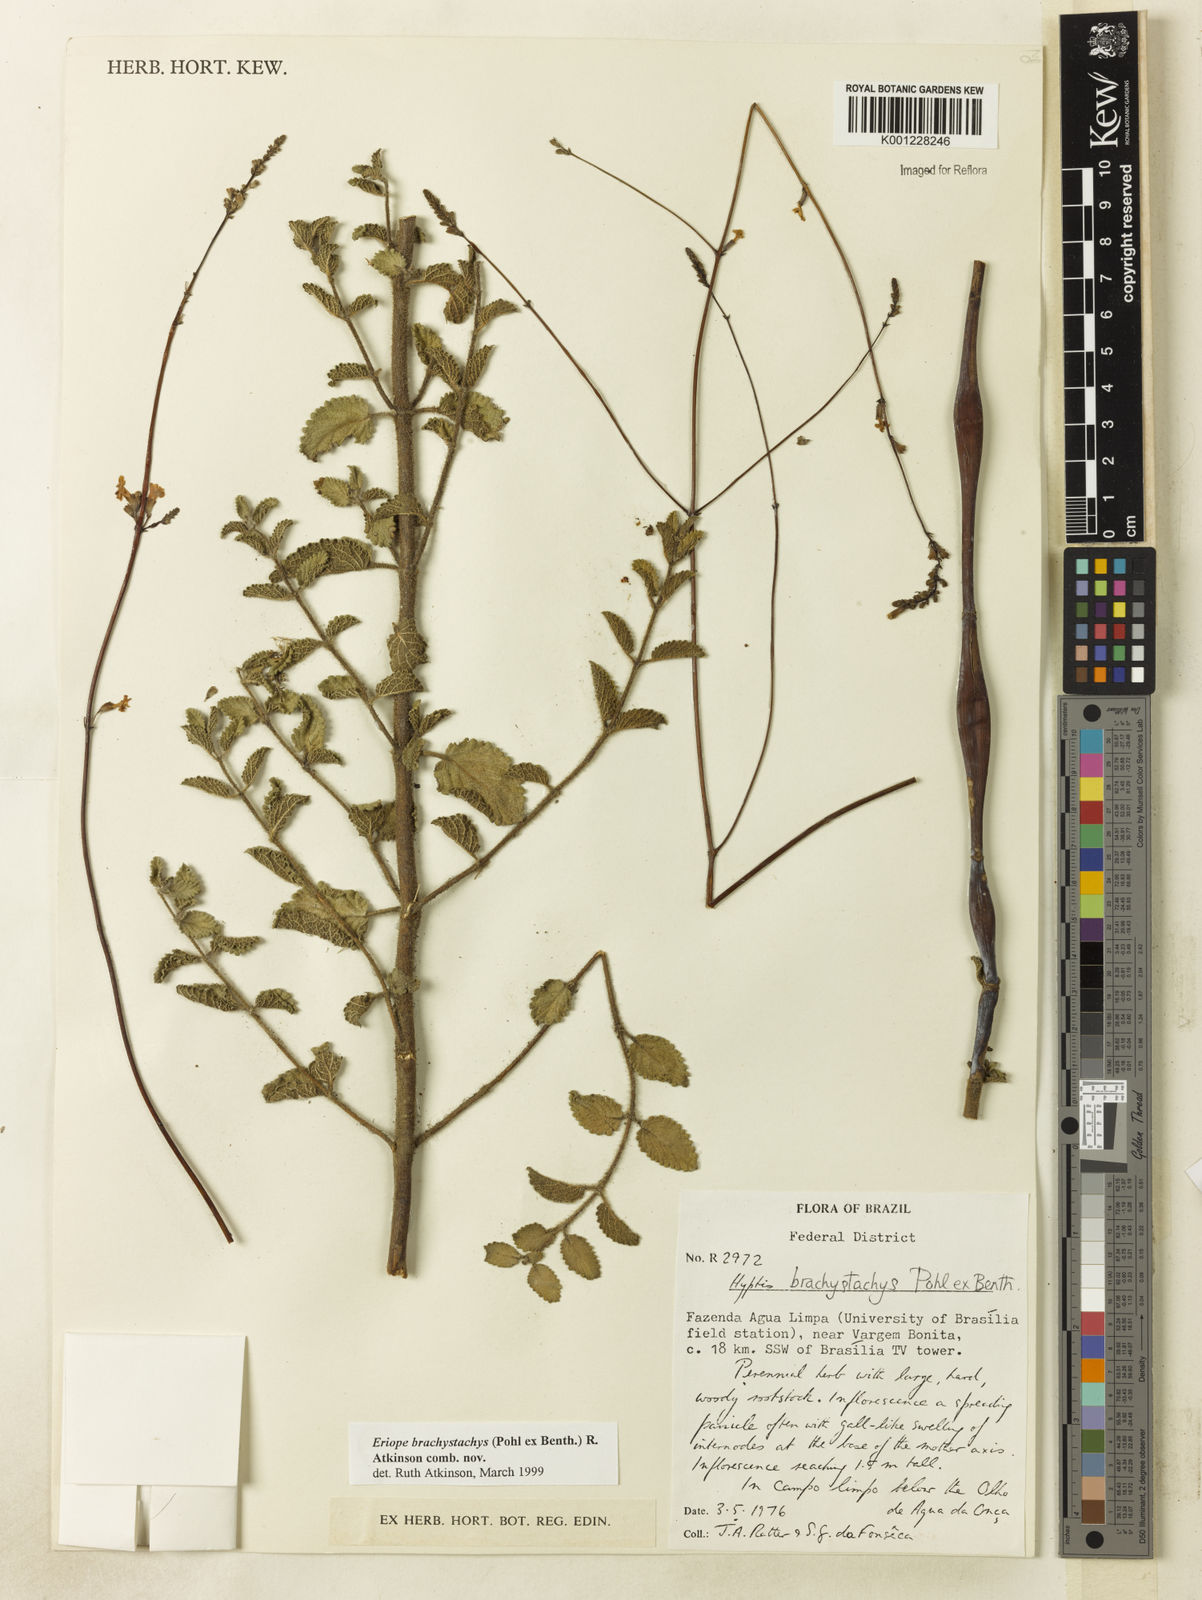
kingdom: Plantae
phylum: Tracheophyta
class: Magnoliopsida
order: Lamiales
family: Lamiaceae
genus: Hypenia
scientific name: Hypenia brachystachys
